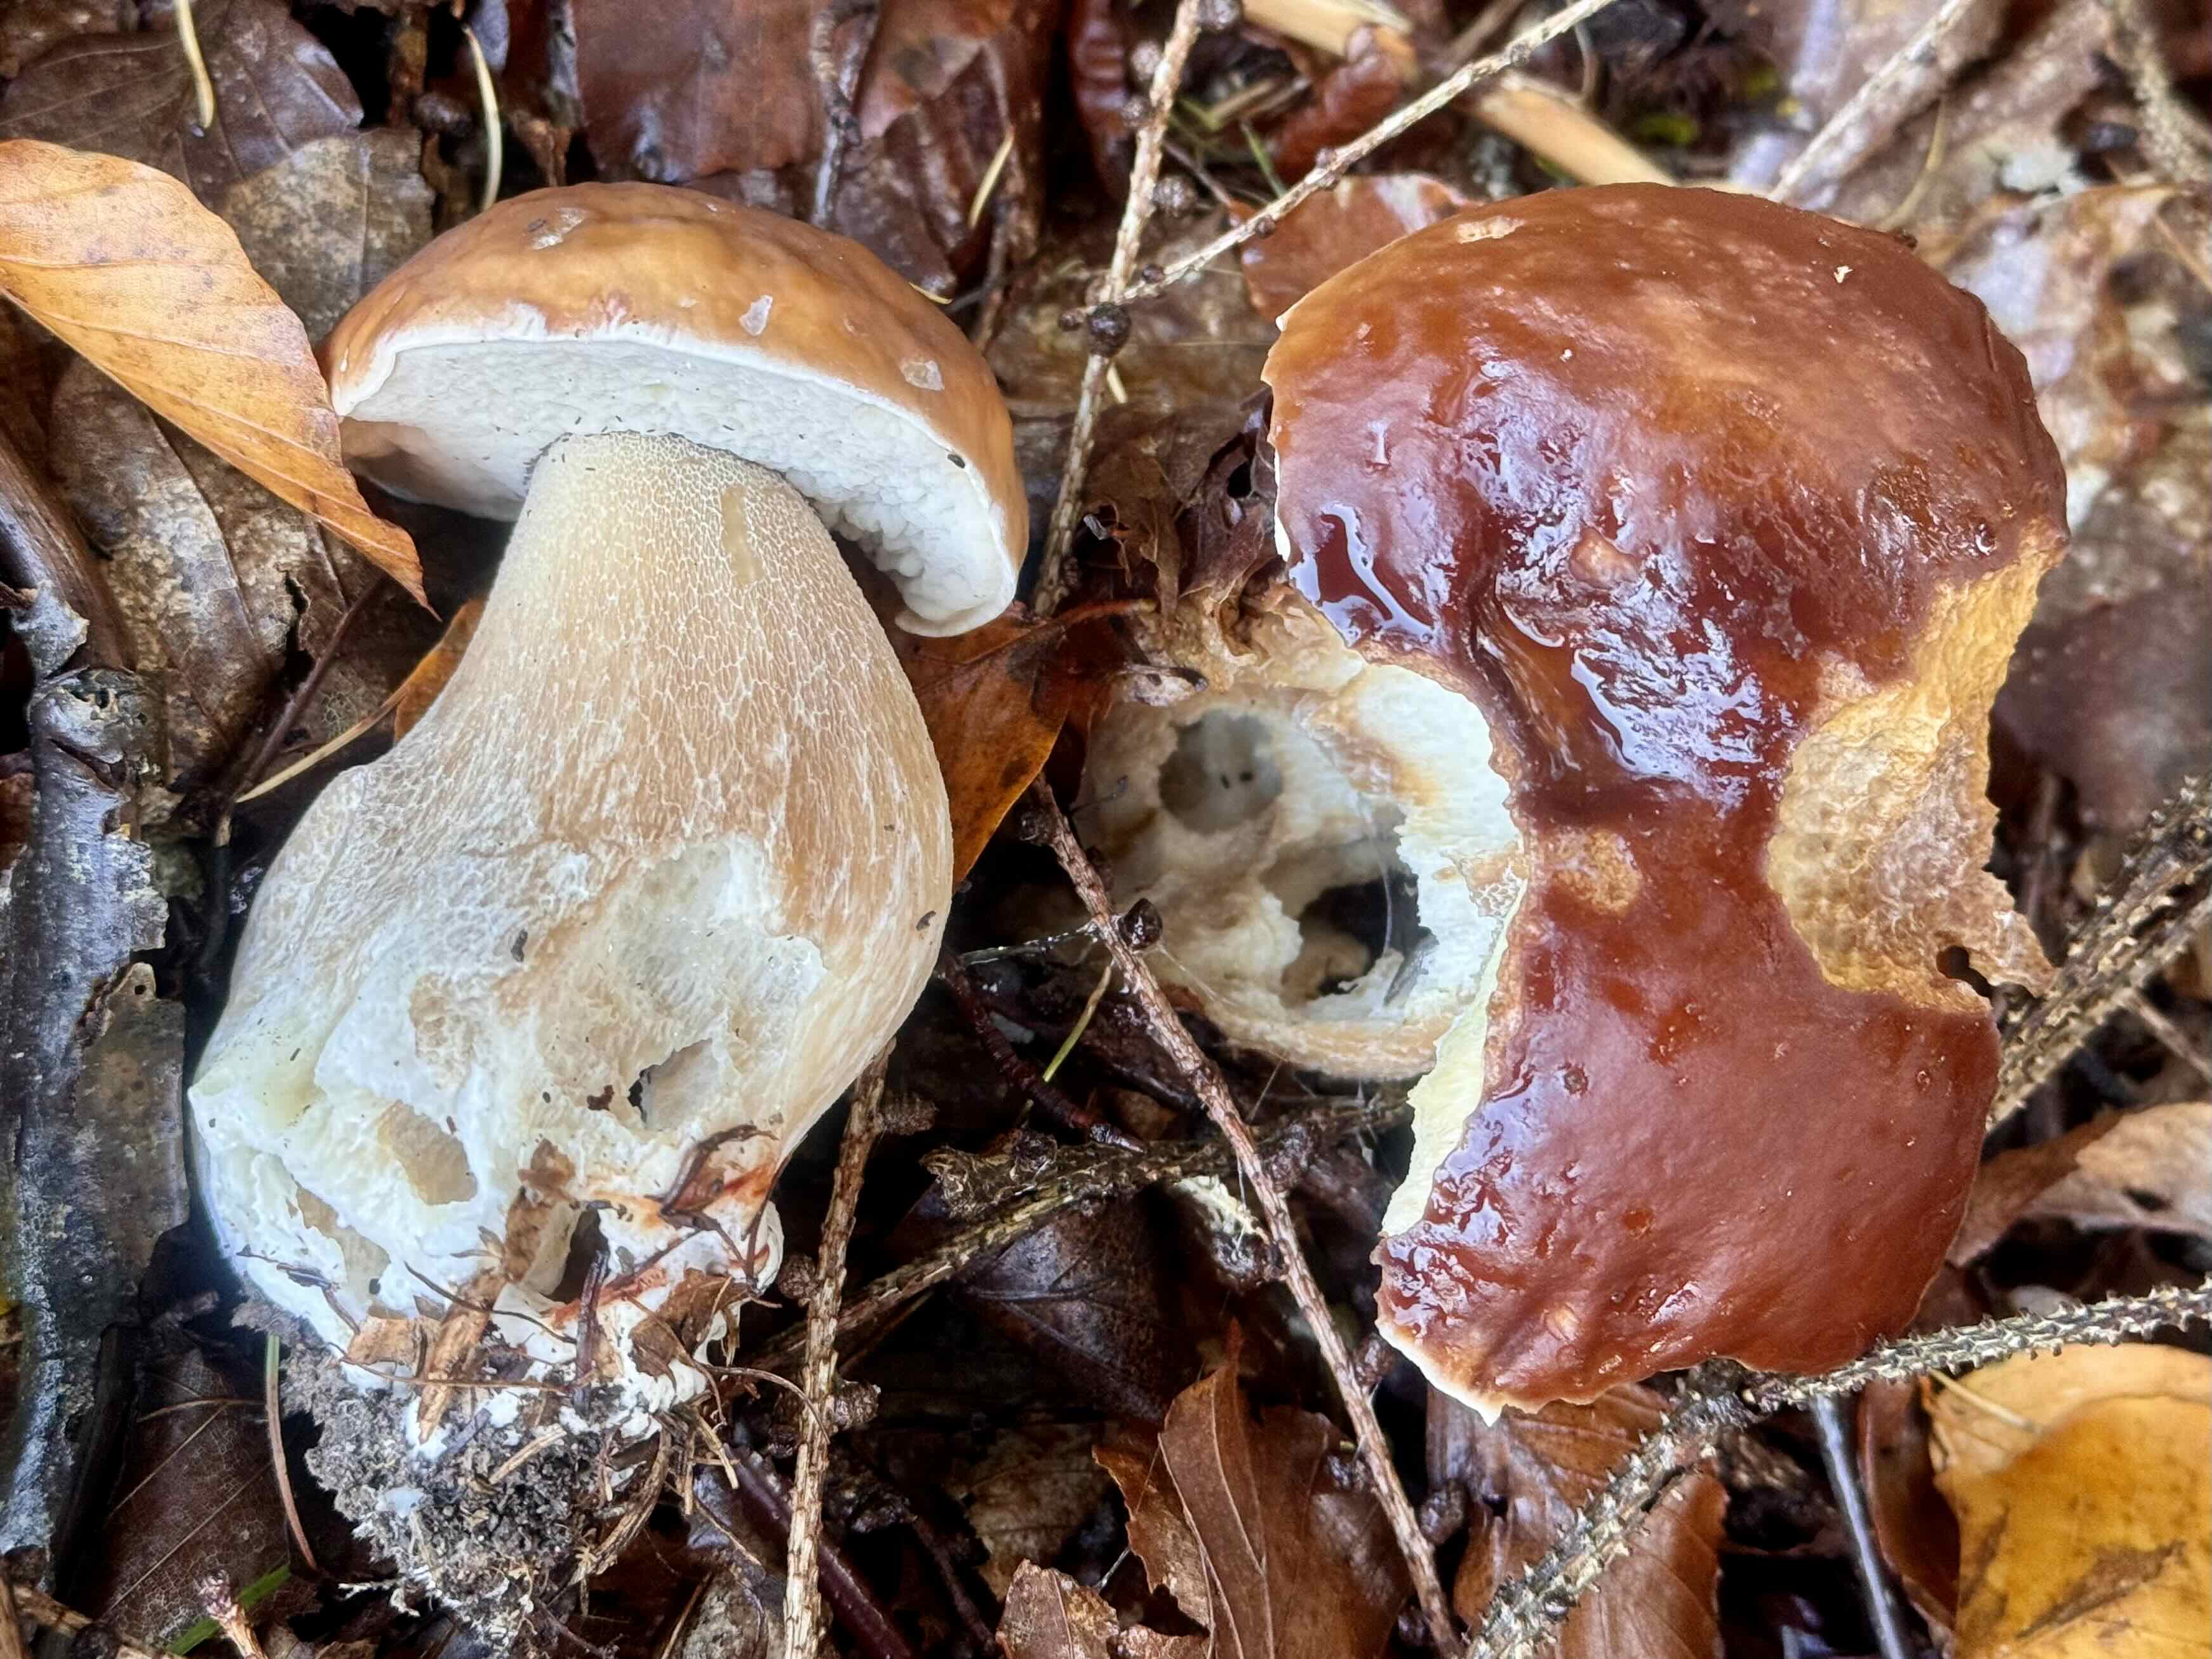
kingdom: Fungi
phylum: Basidiomycota
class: Agaricomycetes
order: Boletales
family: Boletaceae
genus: Boletus
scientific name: Boletus edulis
